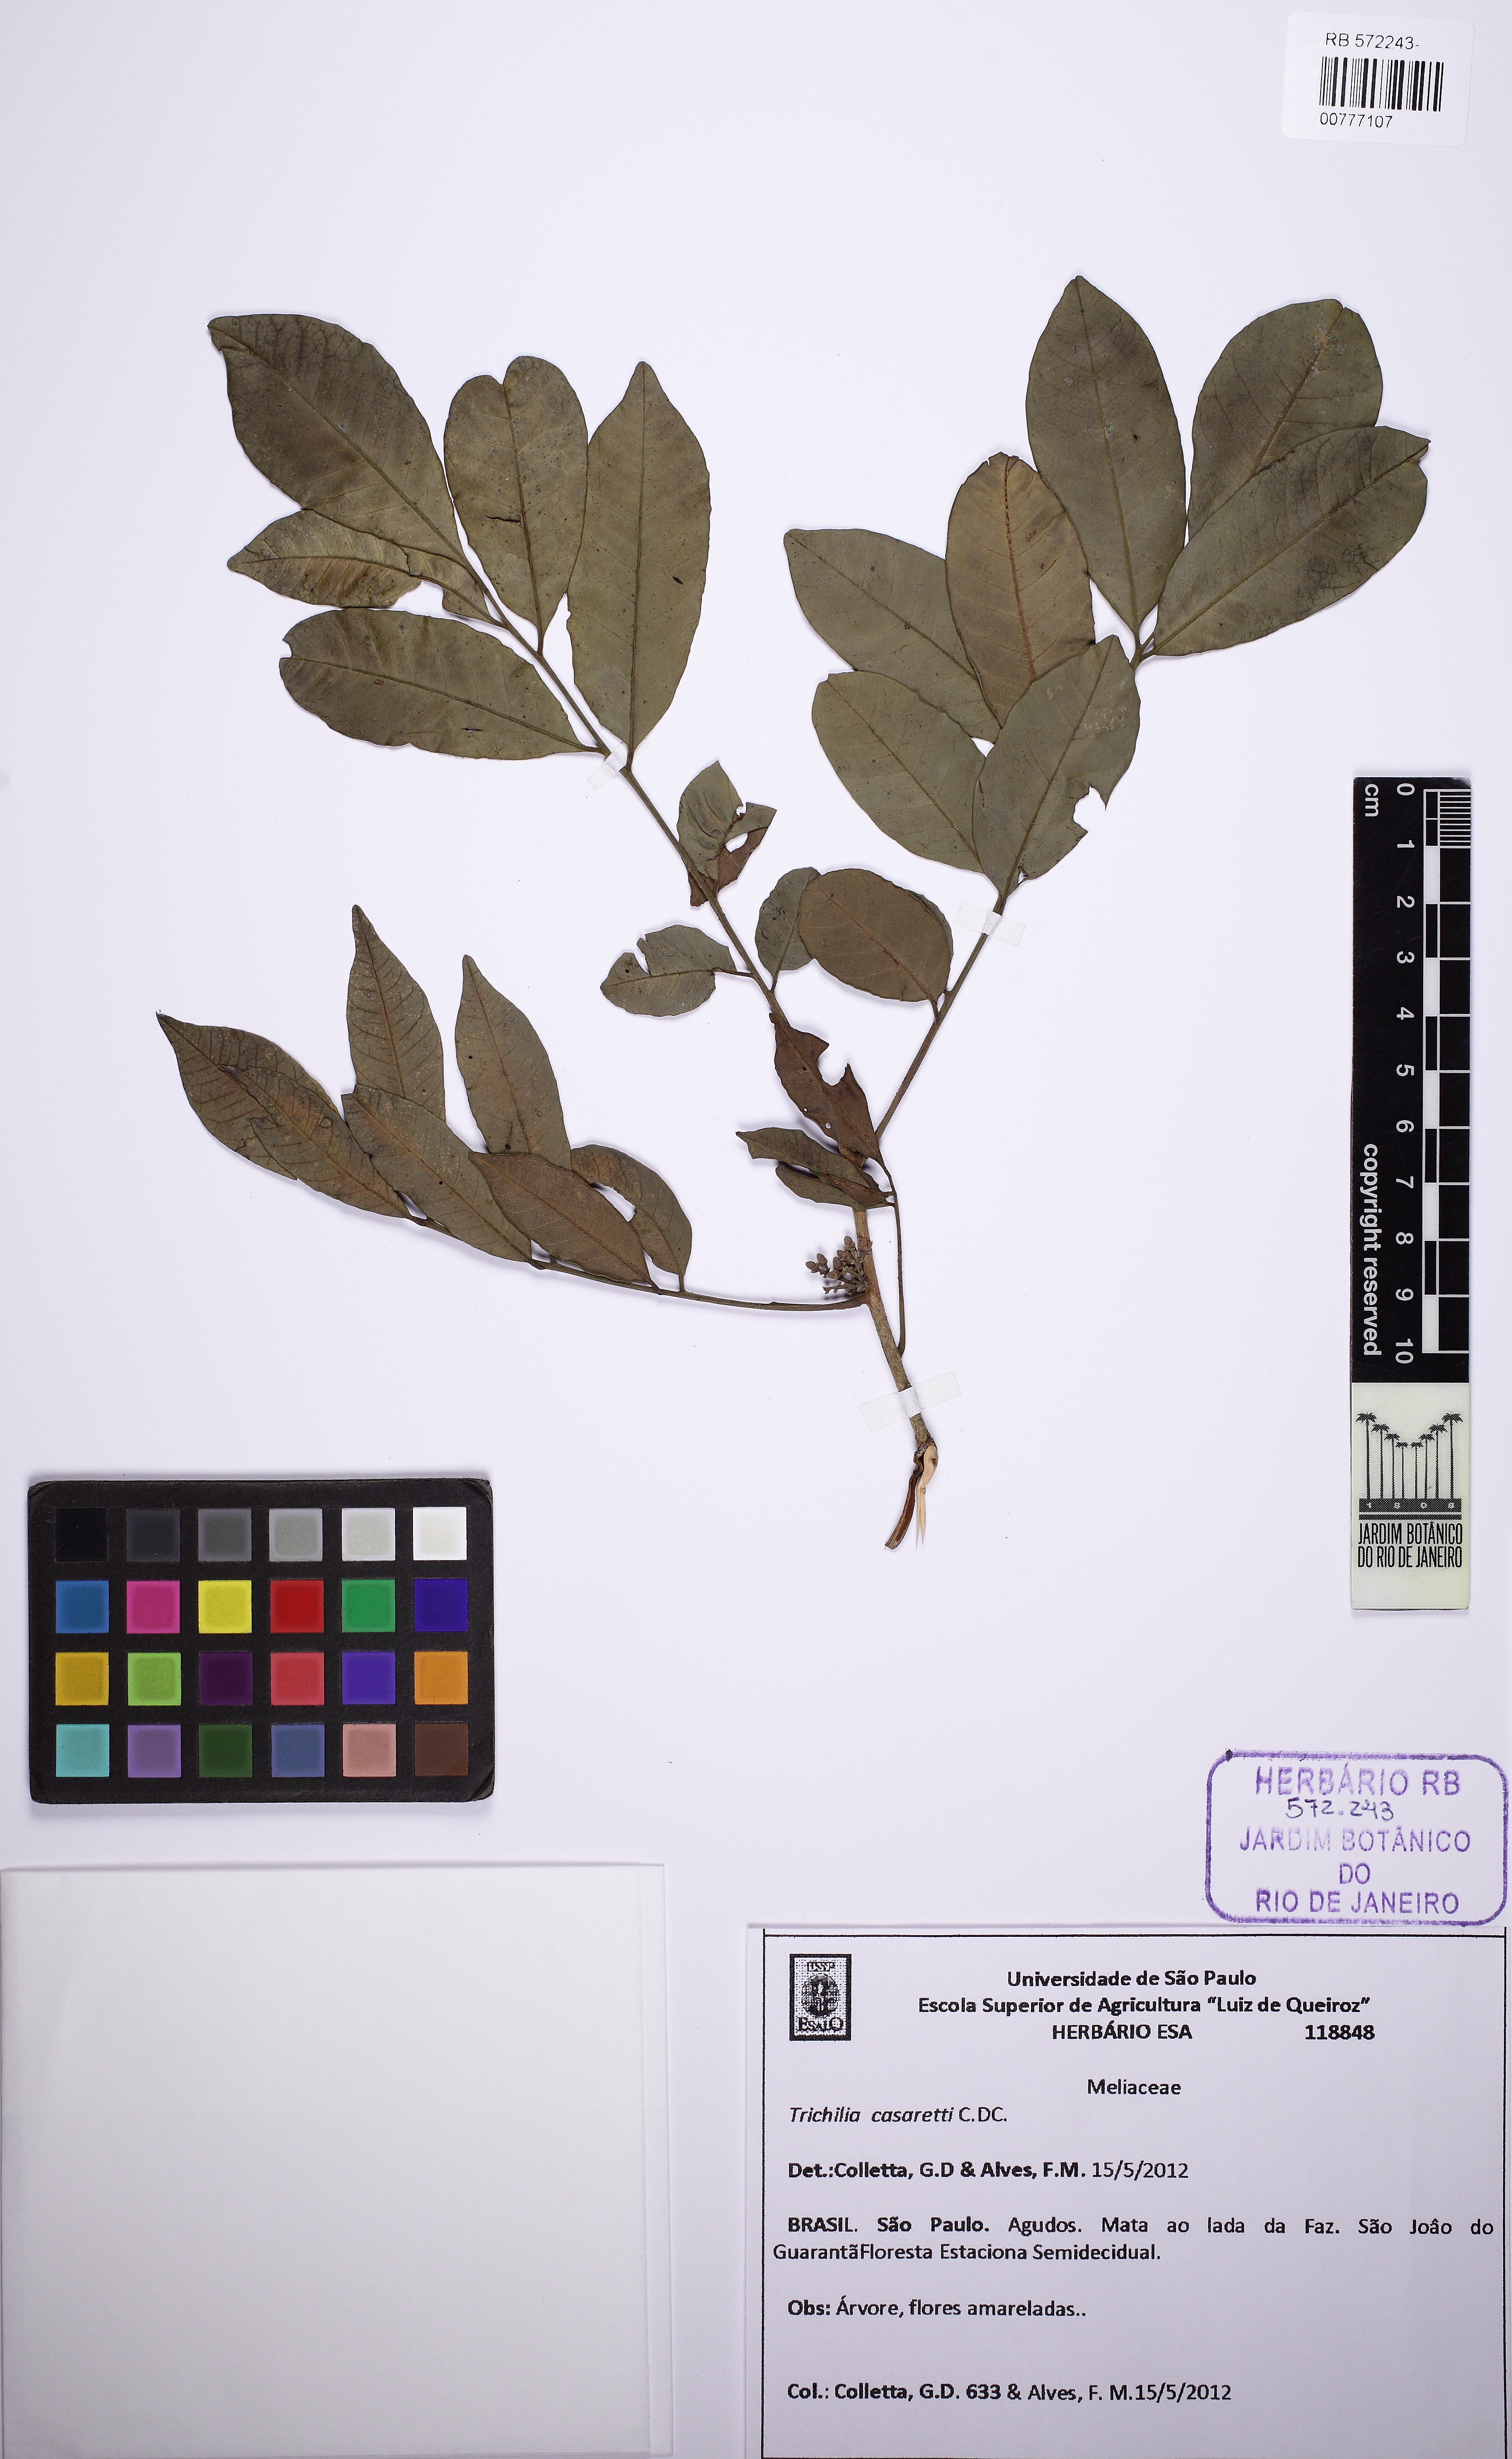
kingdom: Plantae
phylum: Tracheophyta
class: Magnoliopsida
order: Sapindales
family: Meliaceae
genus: Trichilia
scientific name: Trichilia casaretti
